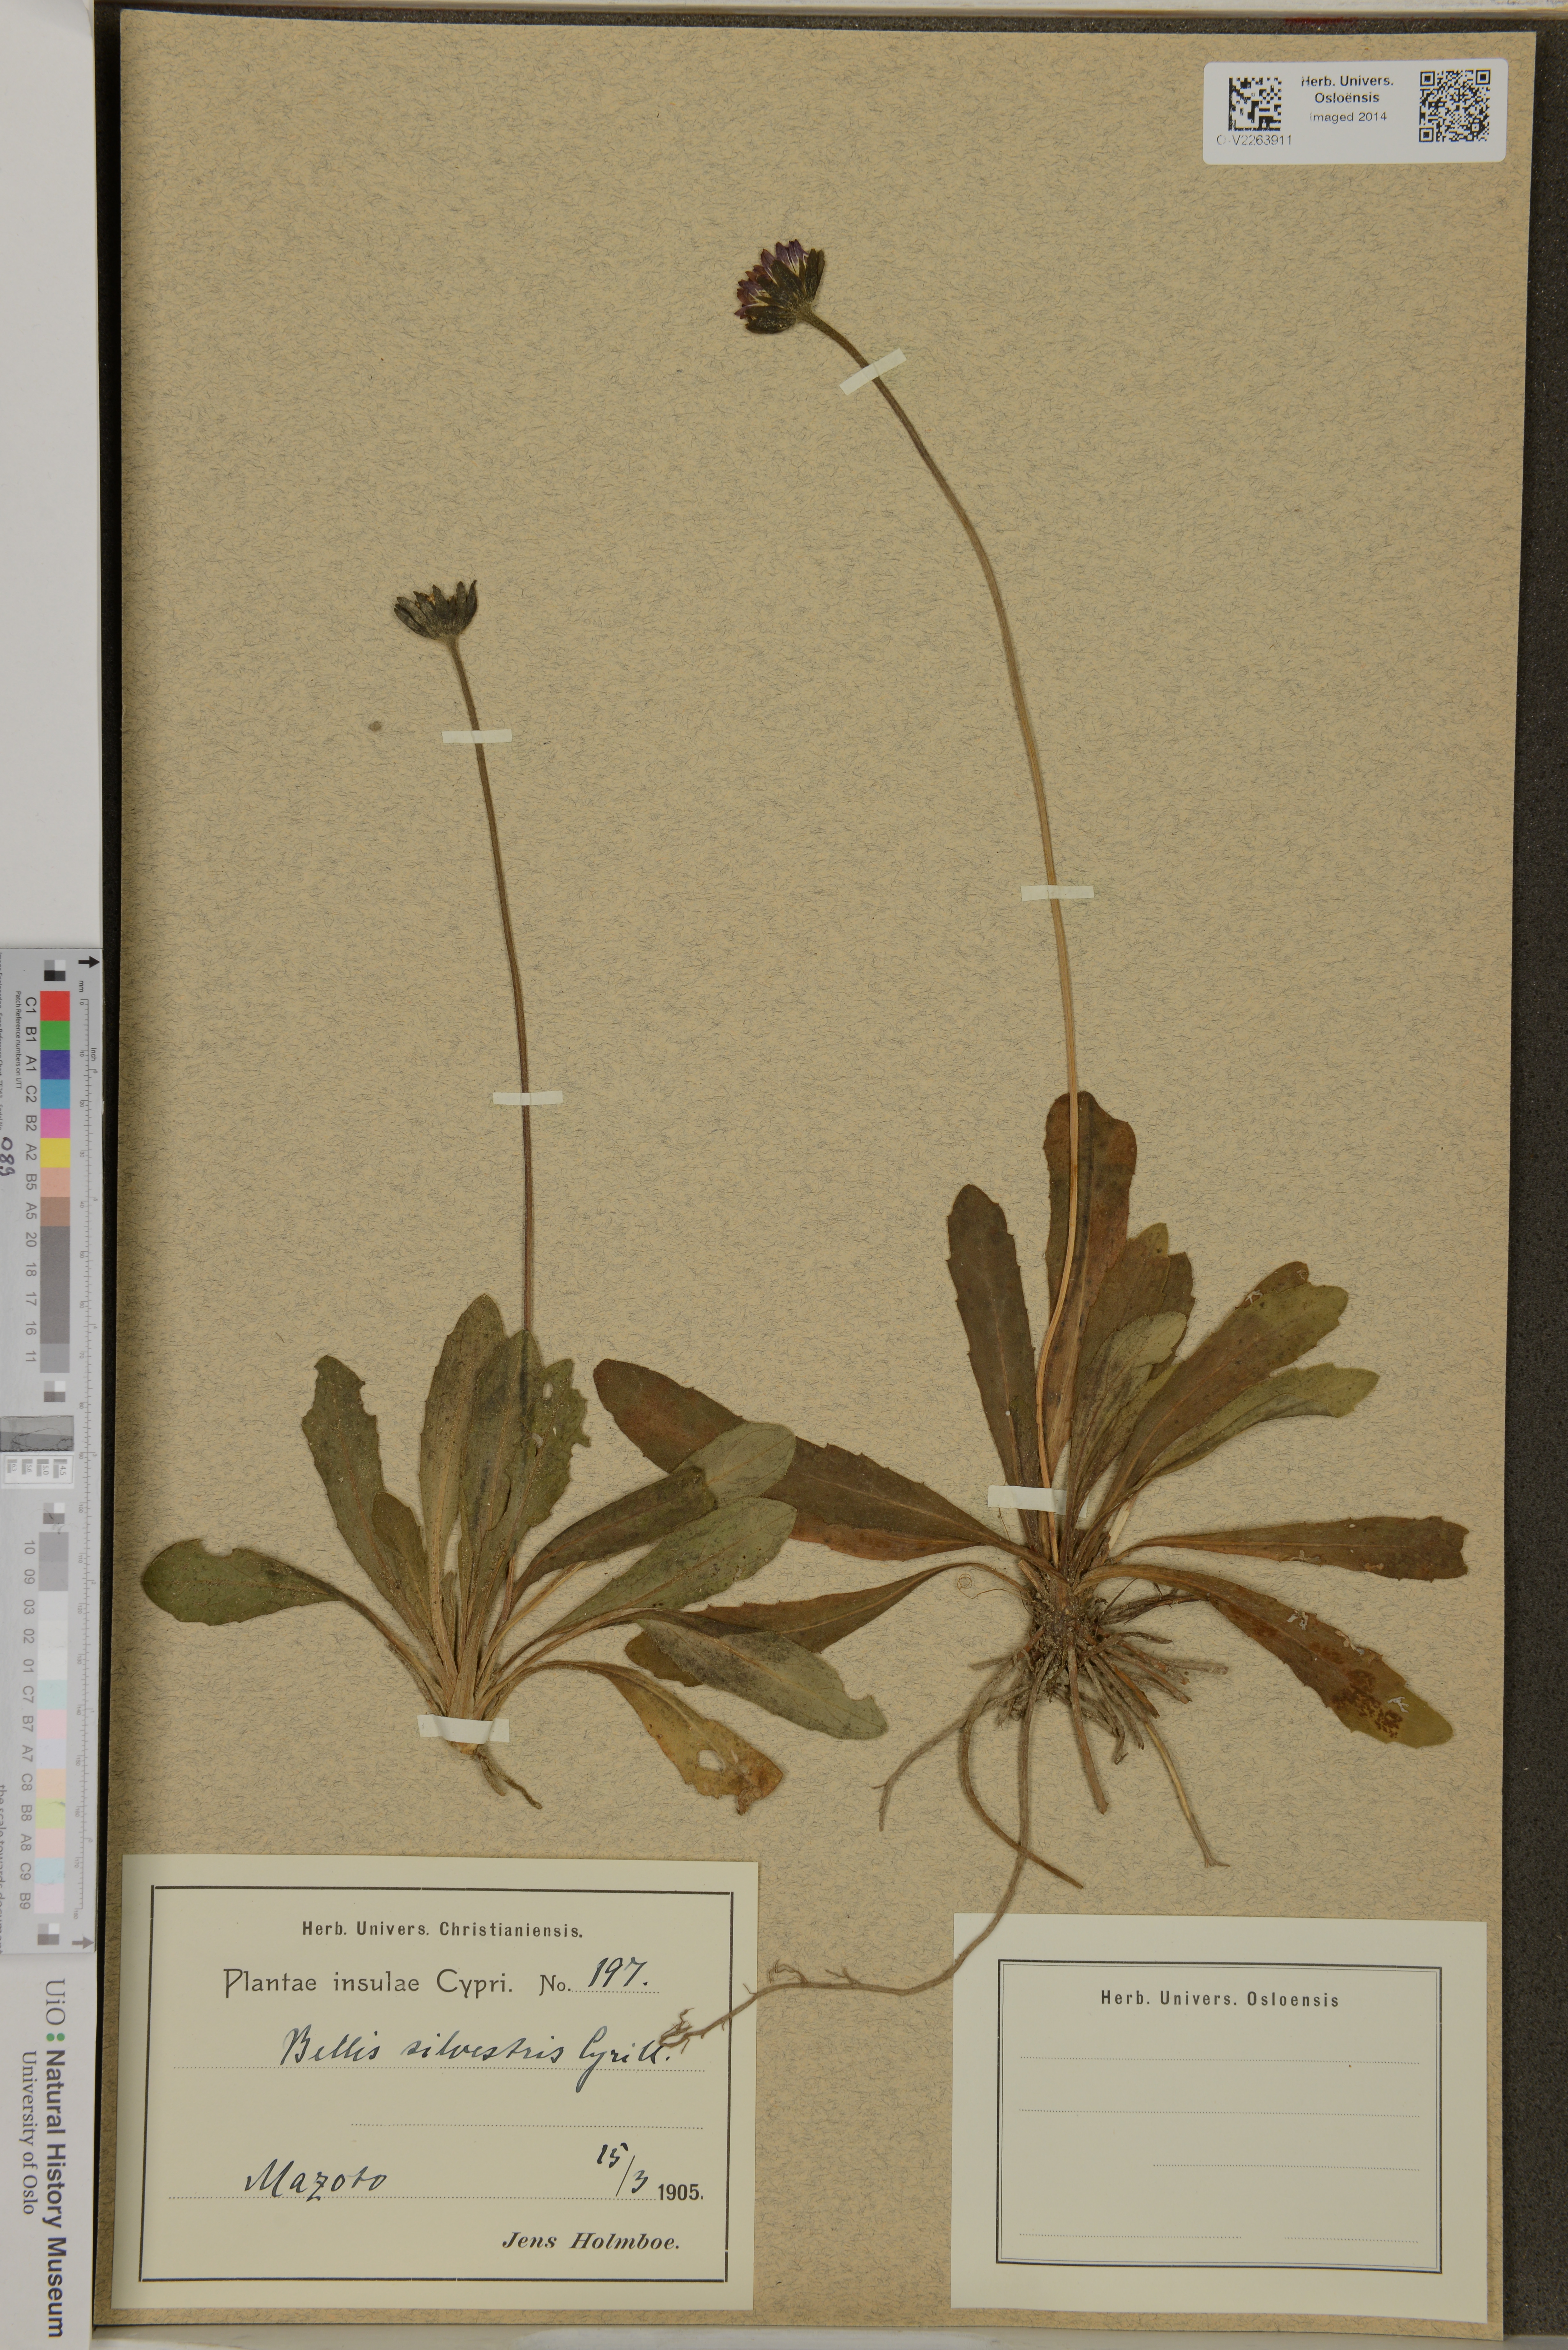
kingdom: Plantae
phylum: Tracheophyta
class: Magnoliopsida
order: Asterales
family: Asteraceae
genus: Bellis
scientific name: Bellis sylvestris
